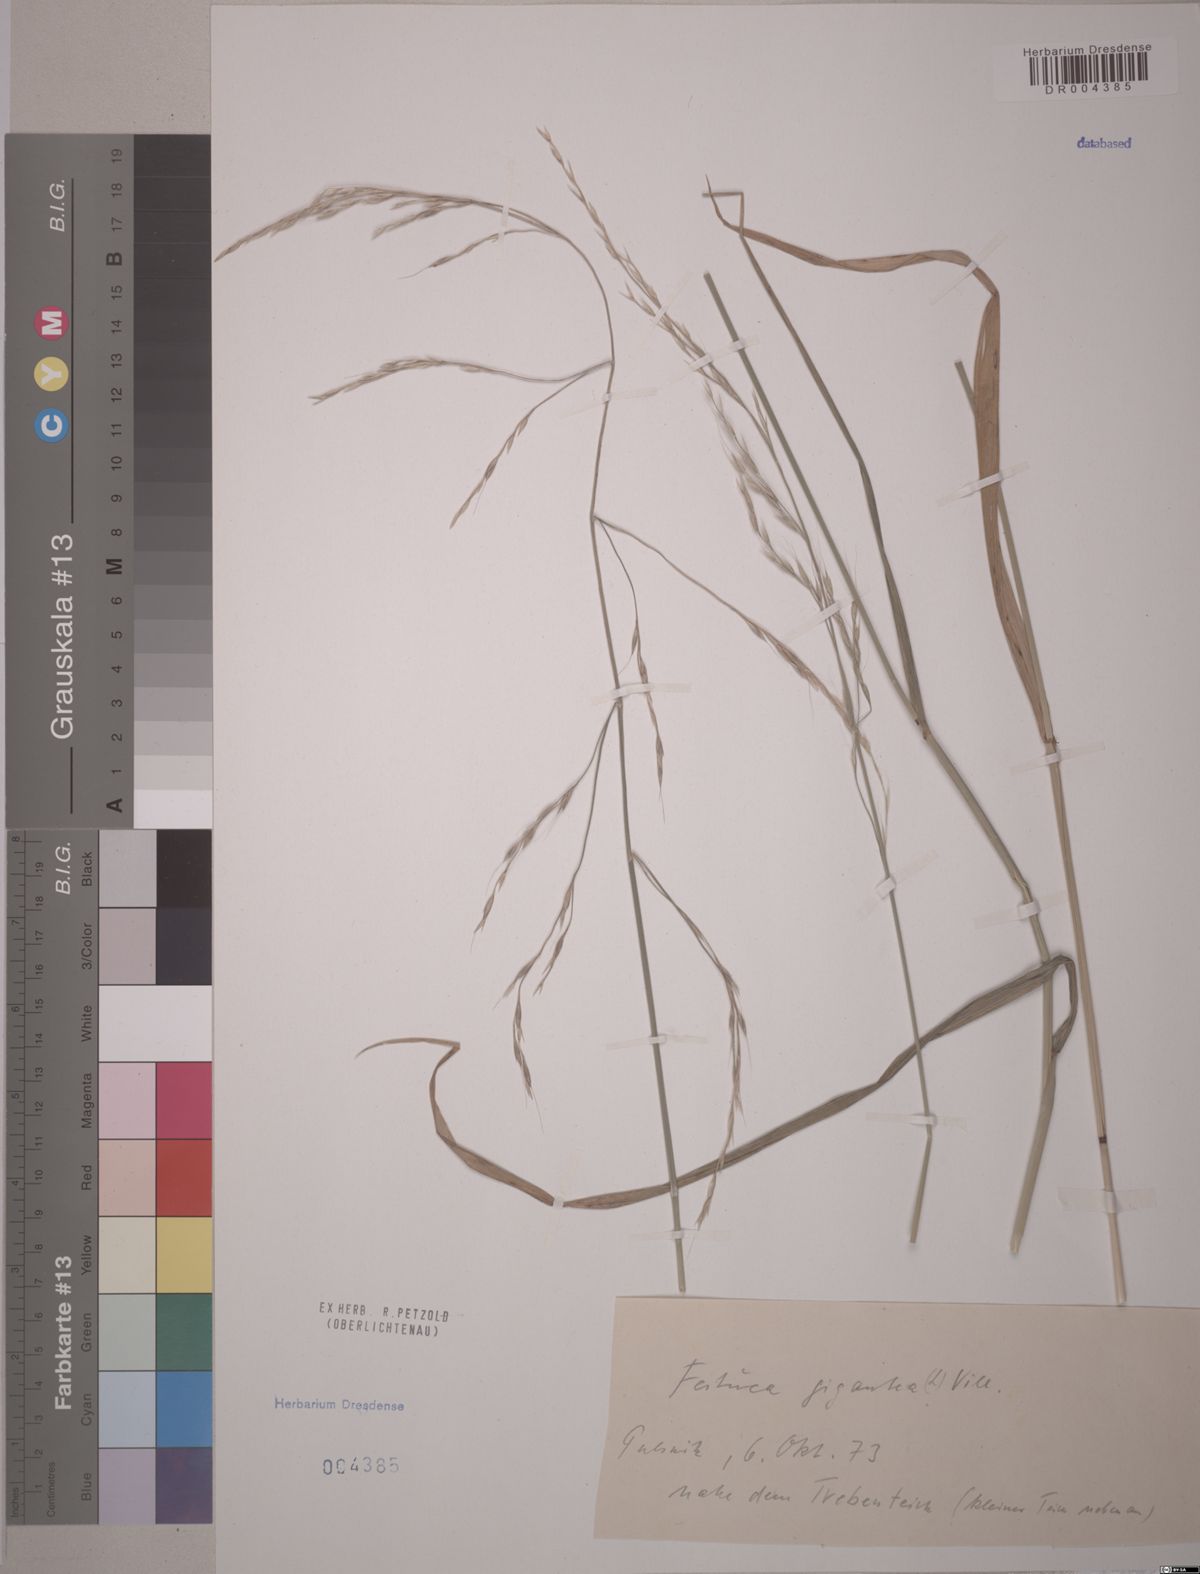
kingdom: Plantae
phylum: Tracheophyta
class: Liliopsida
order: Poales
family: Poaceae
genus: Lolium
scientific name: Lolium giganteum
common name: Giant fescue
